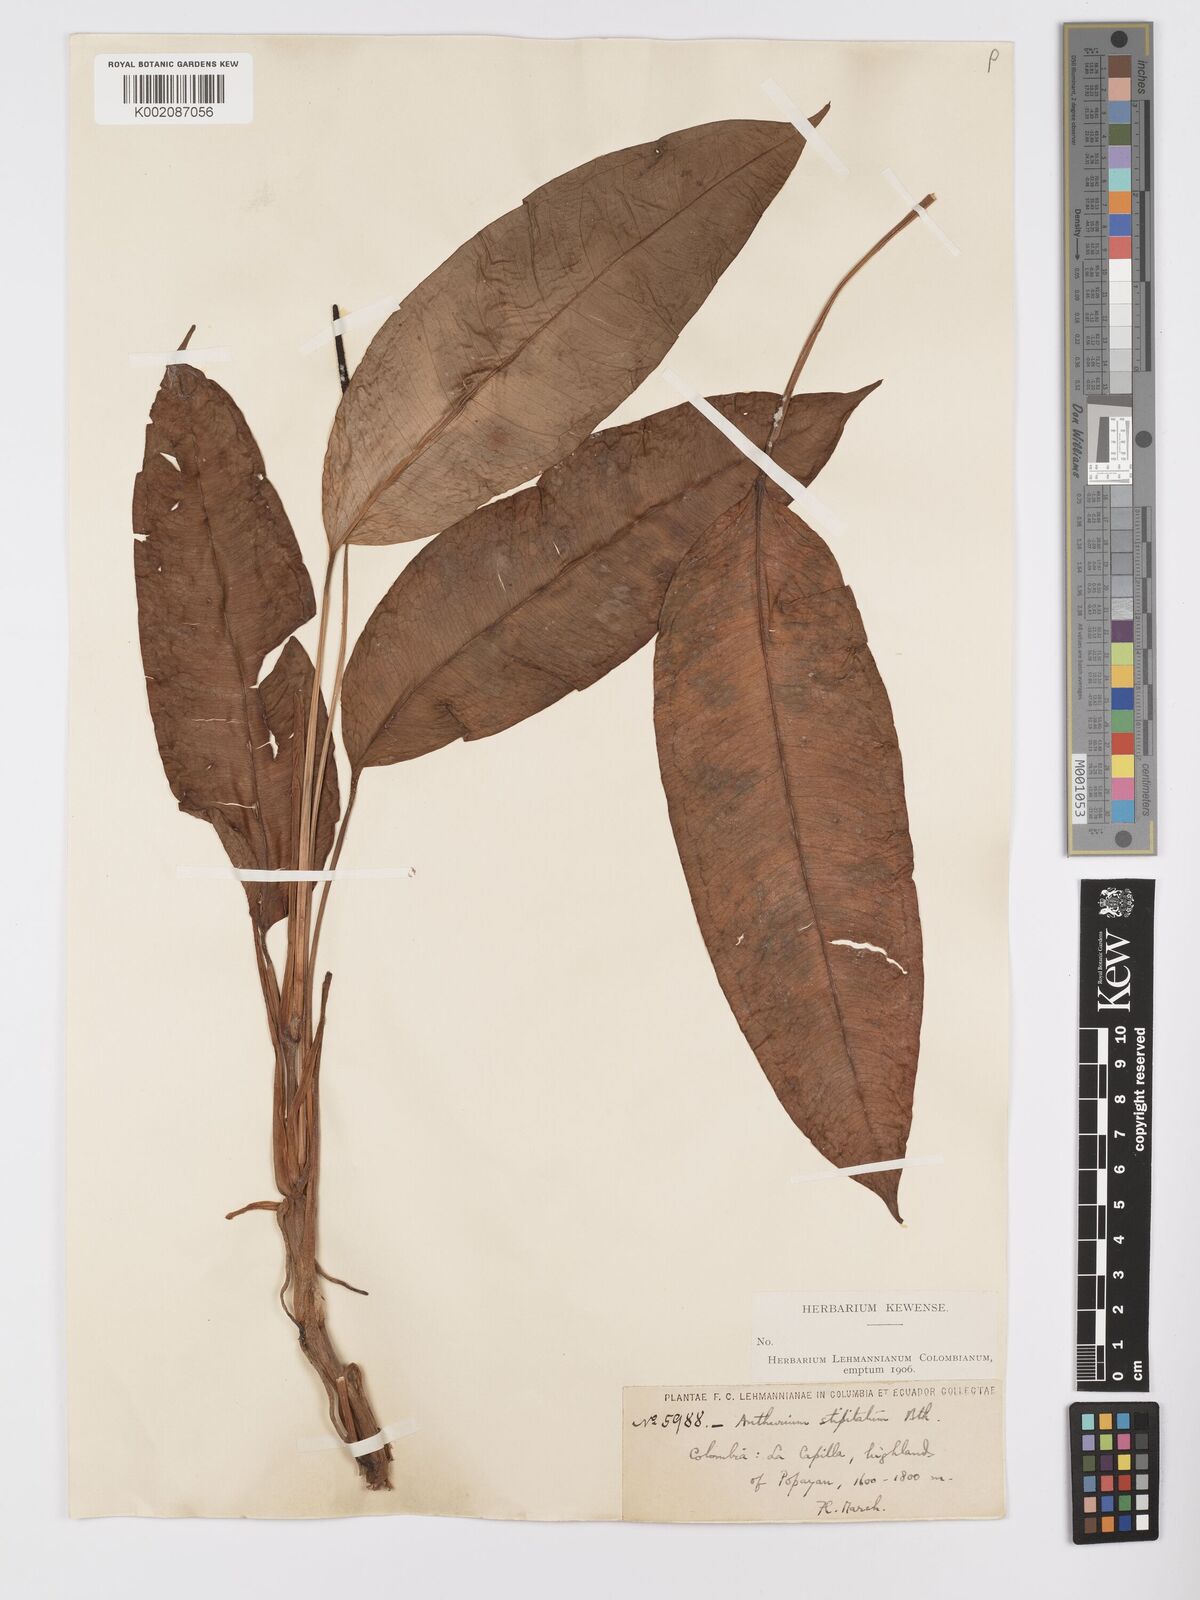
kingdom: Plantae
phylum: Tracheophyta
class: Liliopsida
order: Alismatales
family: Araceae
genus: Anthurium
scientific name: Anthurium stipitatum
